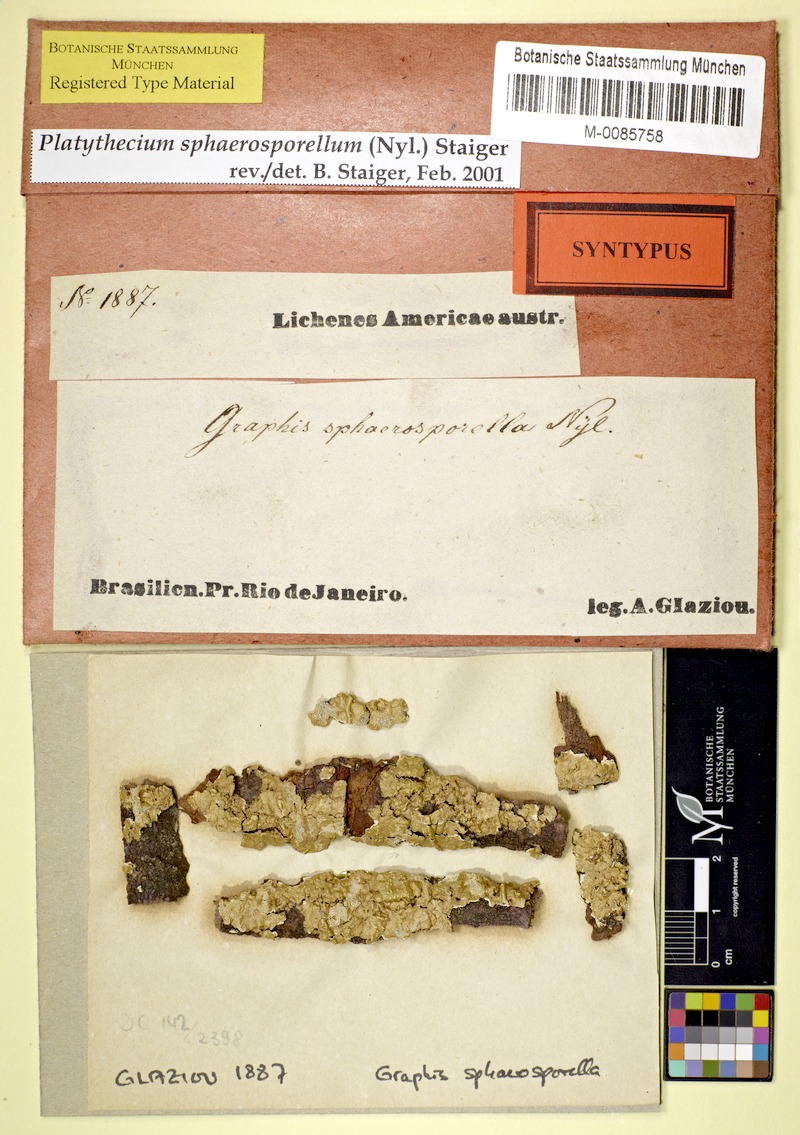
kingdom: Fungi
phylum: Ascomycota
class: Lecanoromycetes
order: Ostropales
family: Graphidaceae
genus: Platythecium
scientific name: Platythecium sphaerosporellum
